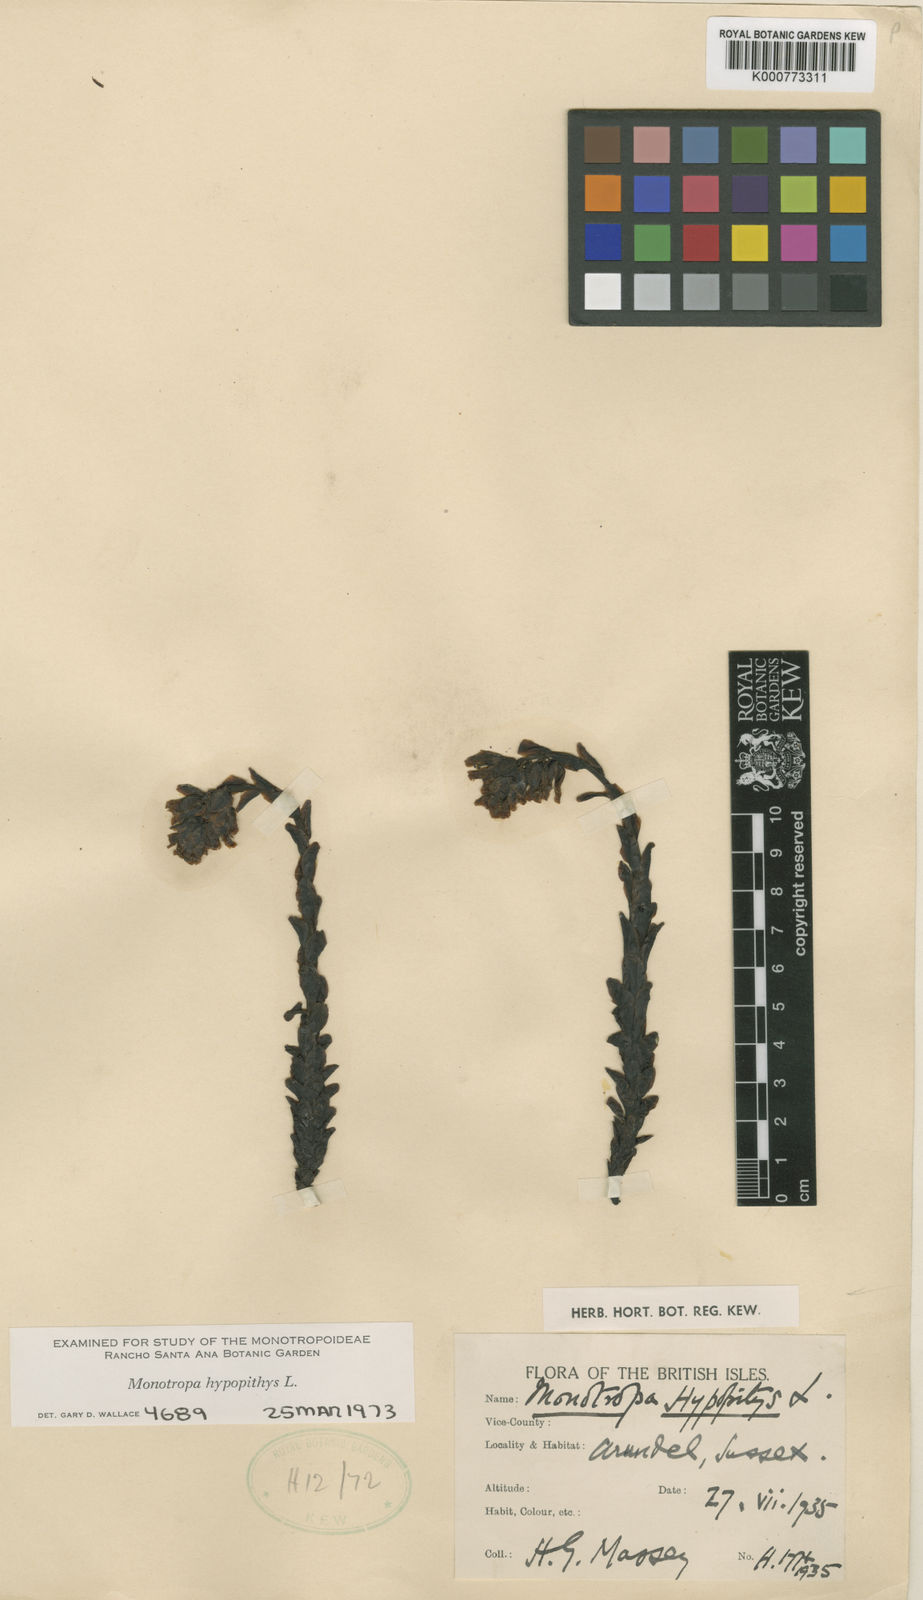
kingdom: Plantae
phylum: Tracheophyta
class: Magnoliopsida
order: Ericales
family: Ericaceae
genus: Monotropa
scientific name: Monotropa
